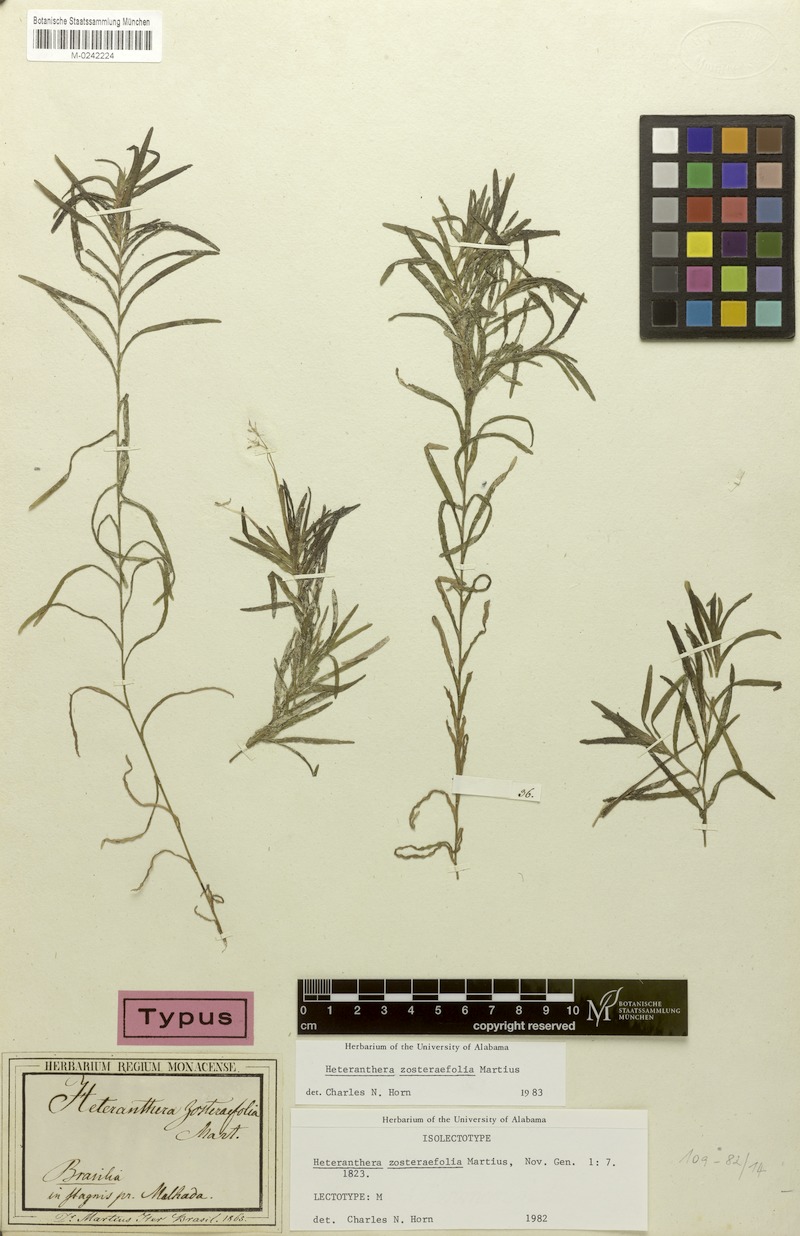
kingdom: Plantae
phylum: Tracheophyta
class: Liliopsida
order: Commelinales
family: Pontederiaceae
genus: Heteranthera
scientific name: Heteranthera zosterifolia
